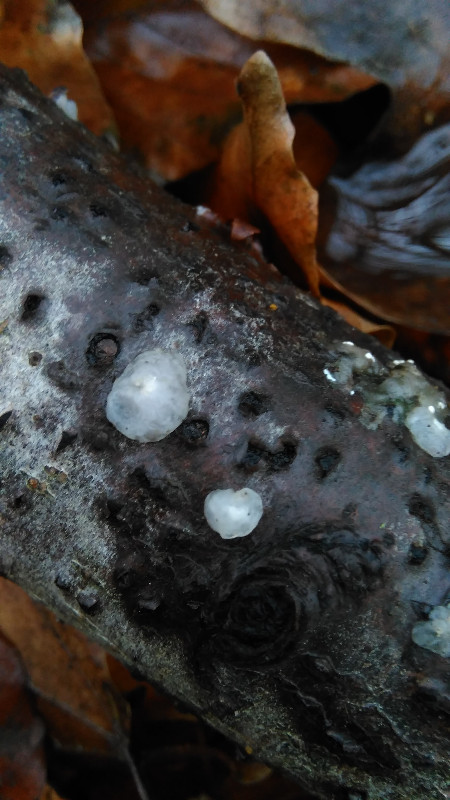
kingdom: Fungi
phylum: Basidiomycota
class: Agaricomycetes
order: Auriculariales
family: Hyaloriaceae
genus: Myxarium
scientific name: Myxarium nucleatum
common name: klar bævretop
